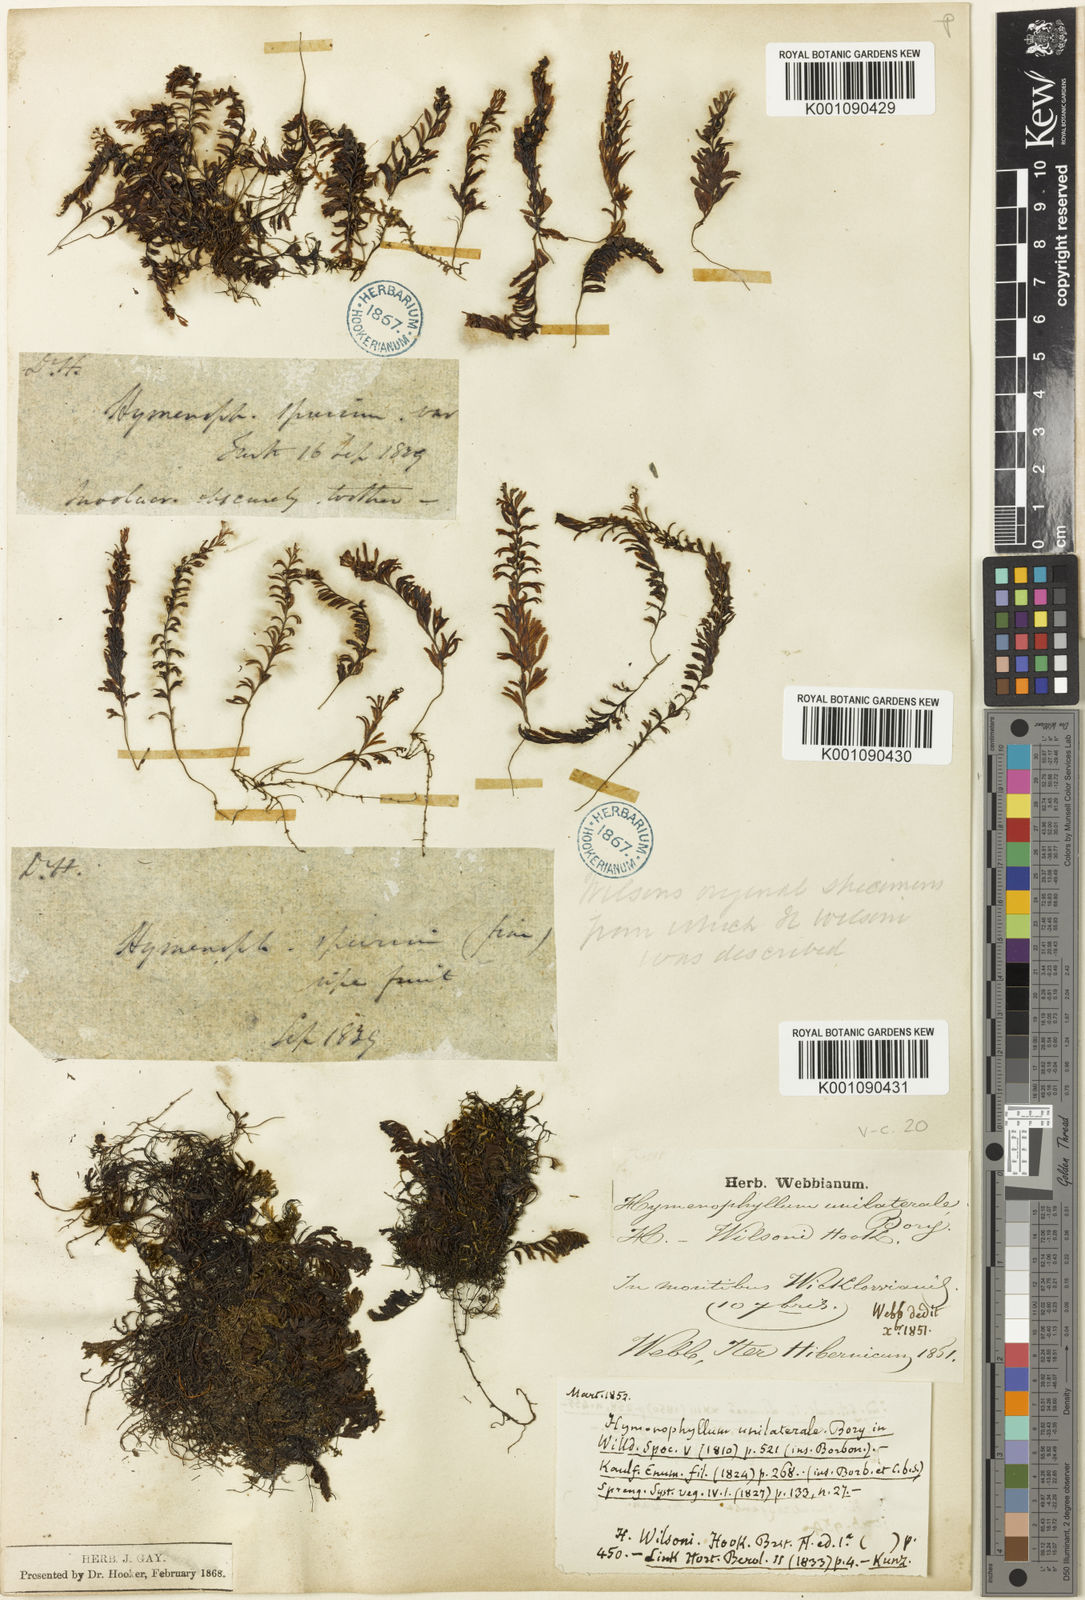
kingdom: Plantae
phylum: Tracheophyta
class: Polypodiopsida
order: Hymenophyllales
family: Hymenophyllaceae
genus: Hymenophyllum
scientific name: Hymenophyllum wilsonii
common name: Wilson's filmy fern
